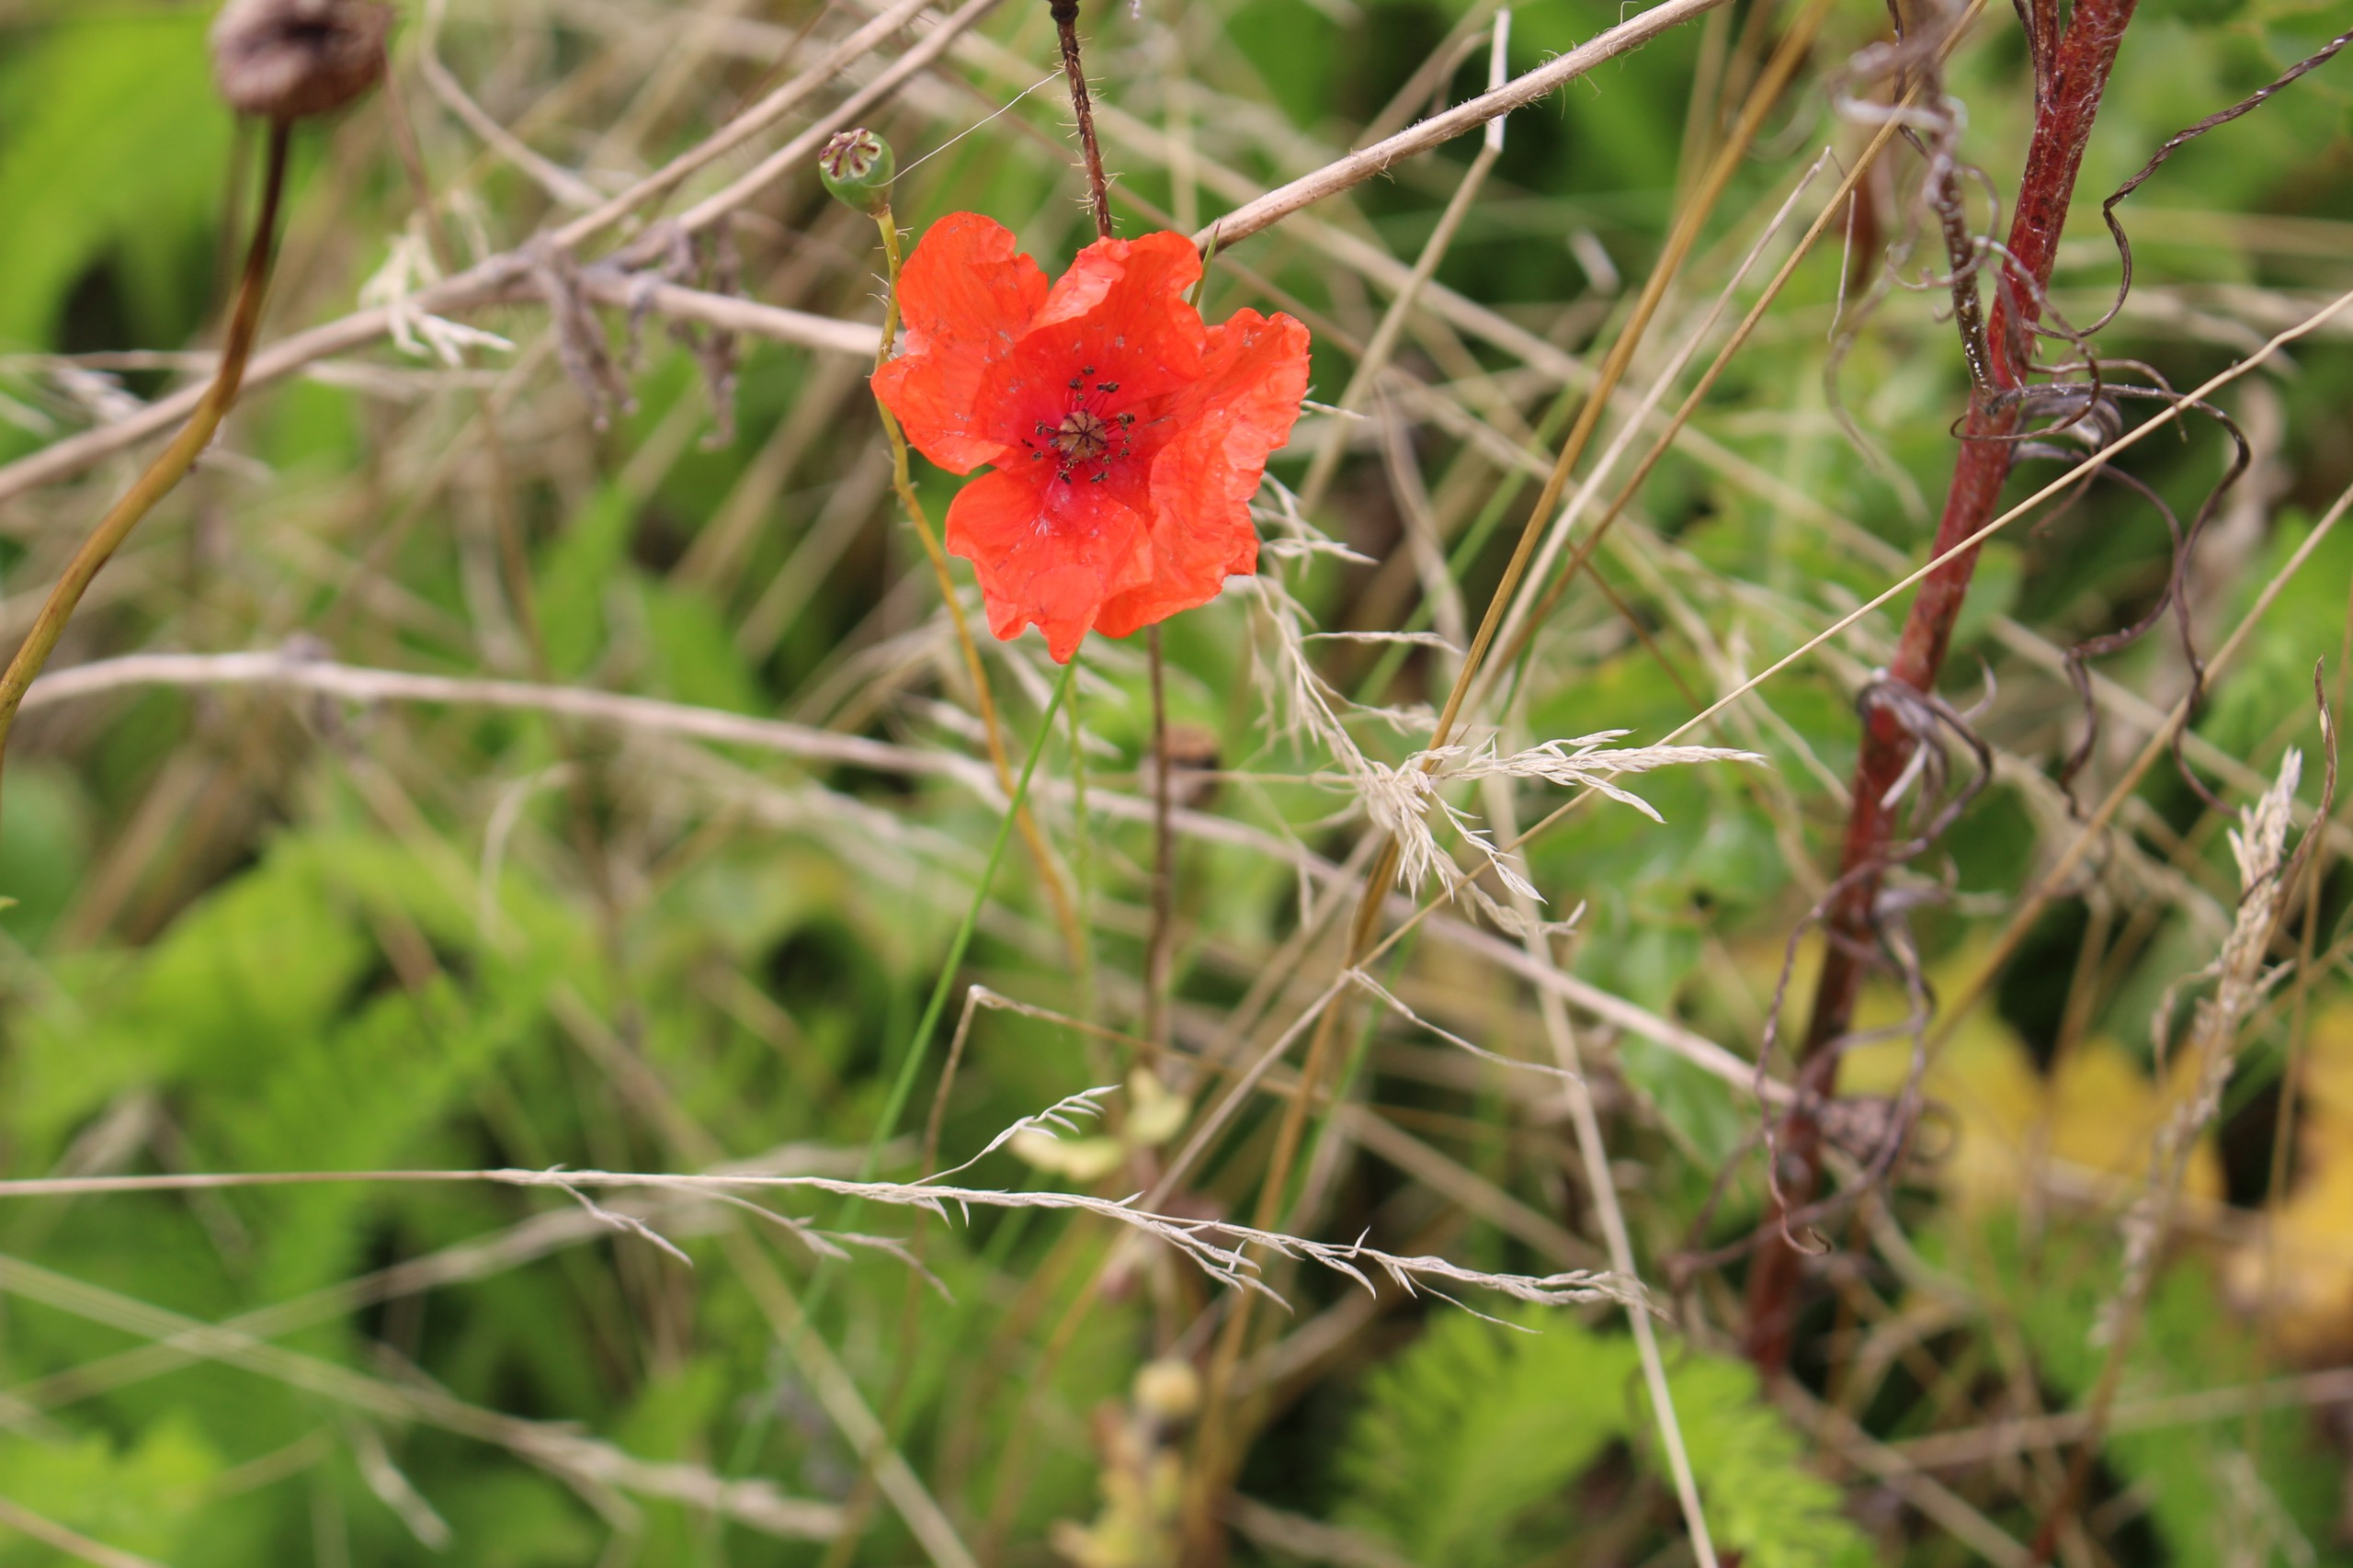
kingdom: Plantae
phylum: Tracheophyta
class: Magnoliopsida
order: Ranunculales
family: Papaveraceae
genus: Papaver
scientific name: Papaver rhoeas
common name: Korn-valmue
